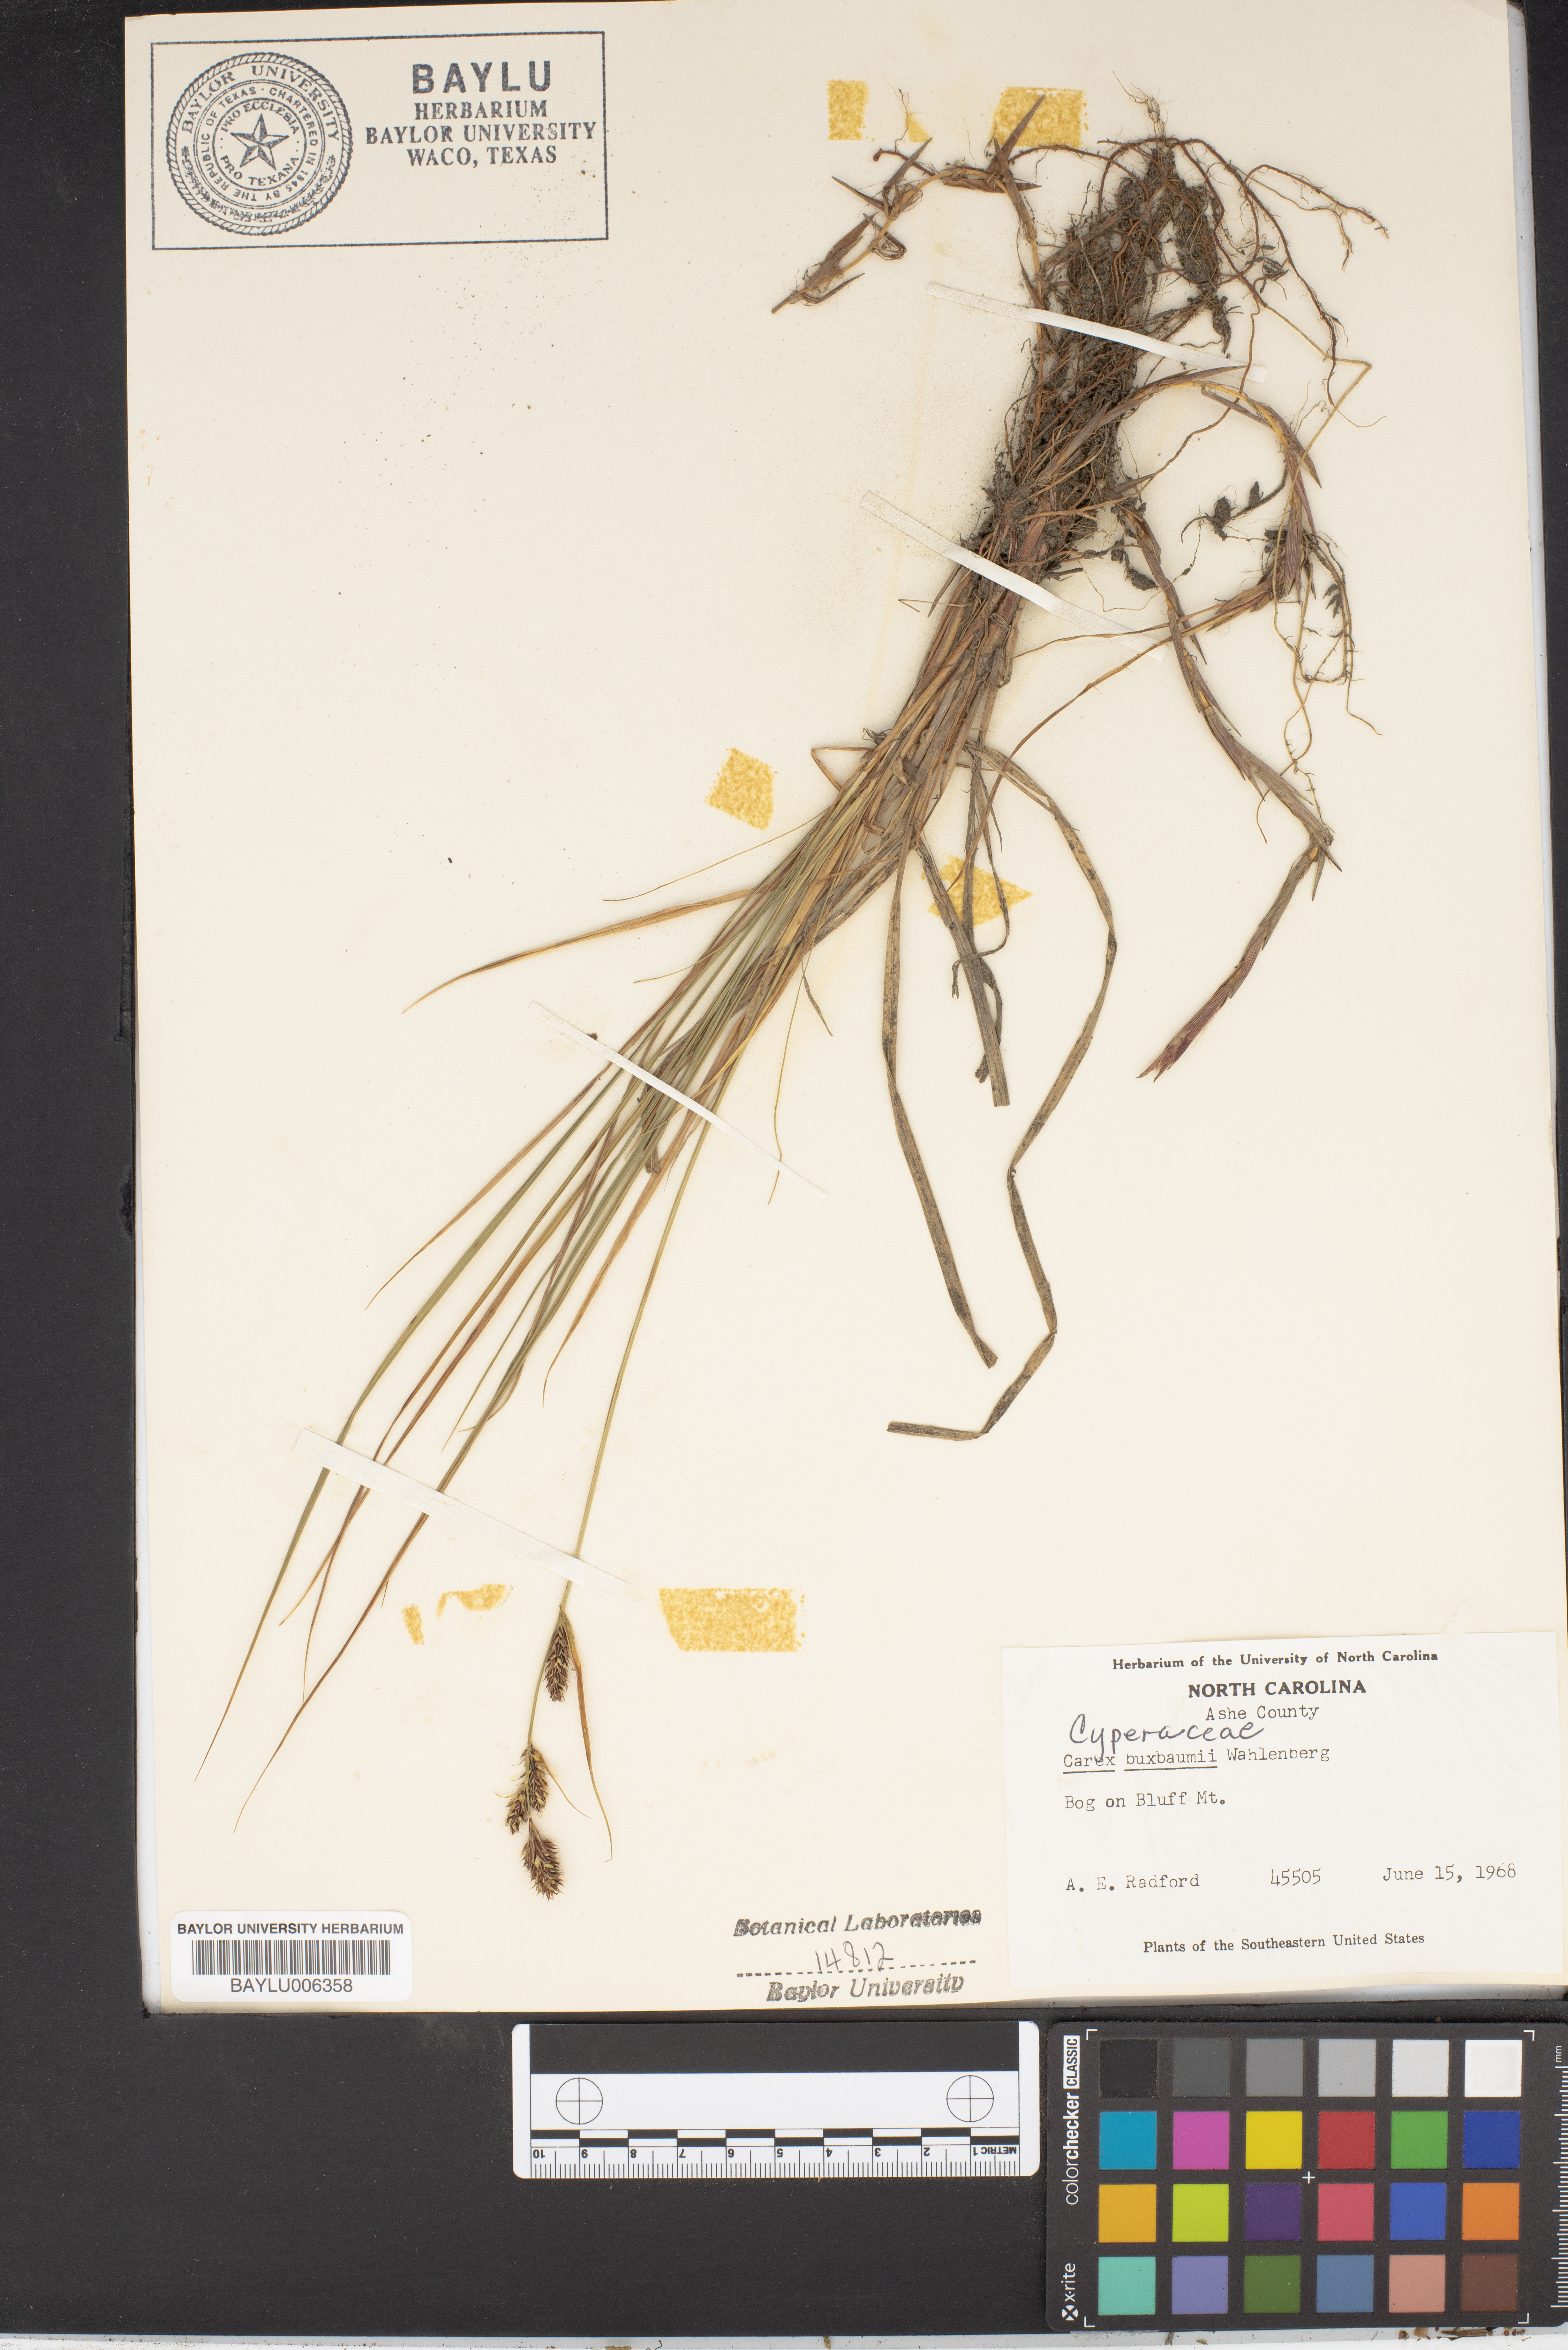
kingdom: Plantae
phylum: Tracheophyta
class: Liliopsida
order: Poales
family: Cyperaceae
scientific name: Cyperaceae
